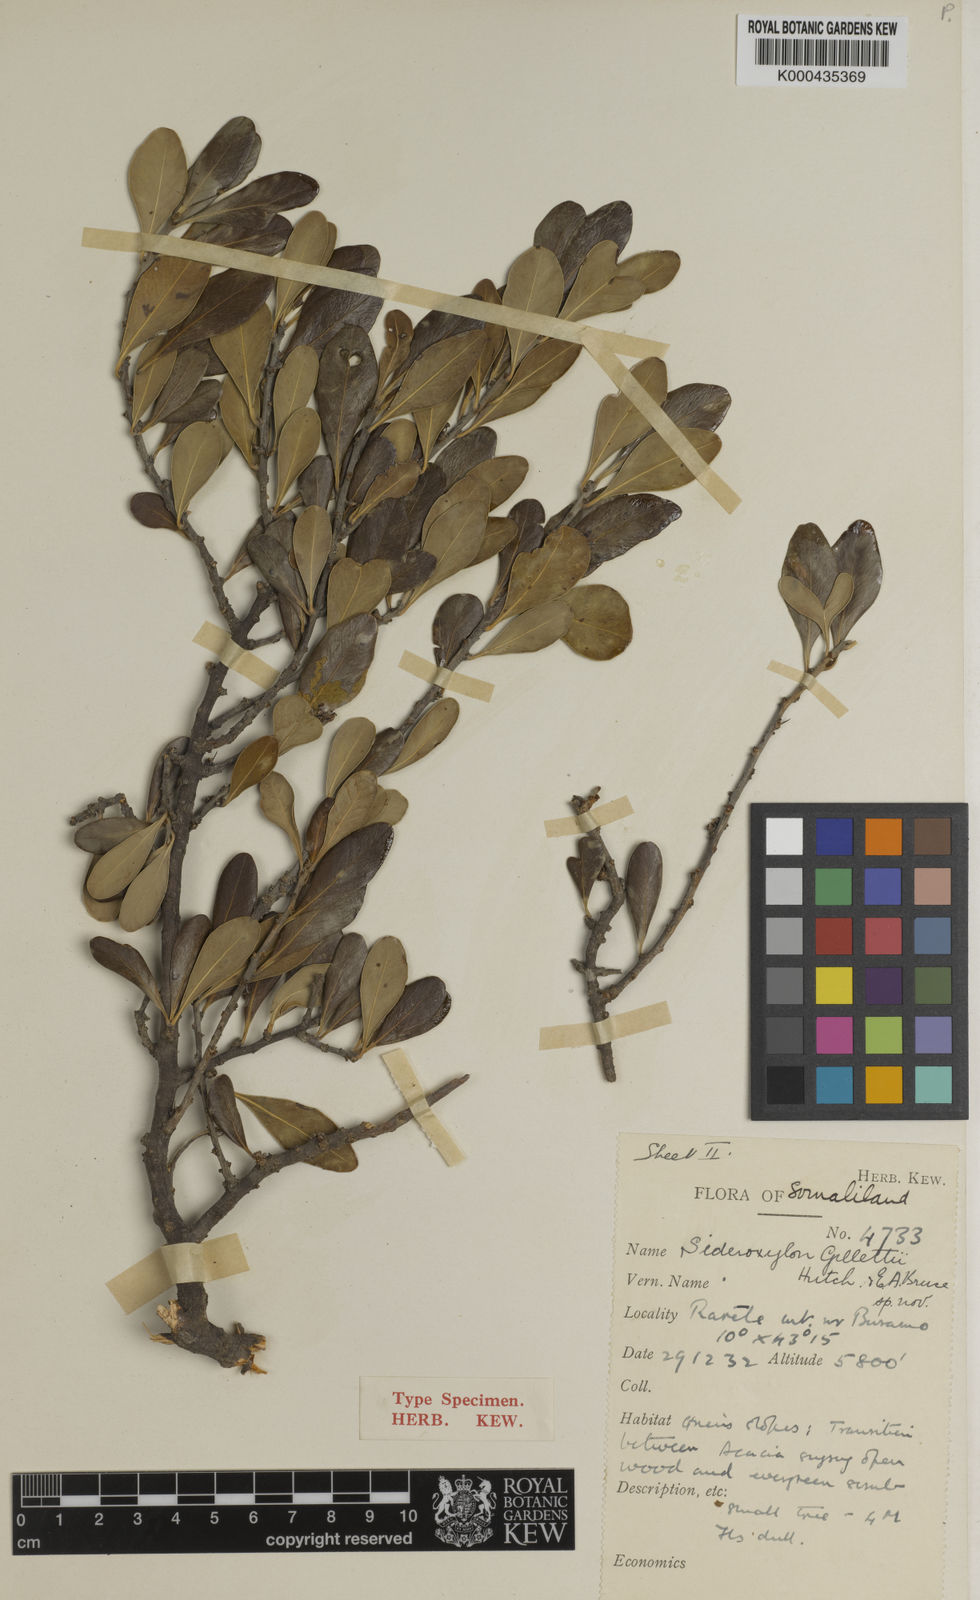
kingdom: Plantae
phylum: Tracheophyta
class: Magnoliopsida
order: Ericales
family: Sapotaceae
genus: Sideroxylon
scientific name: Sideroxylon mascatense
